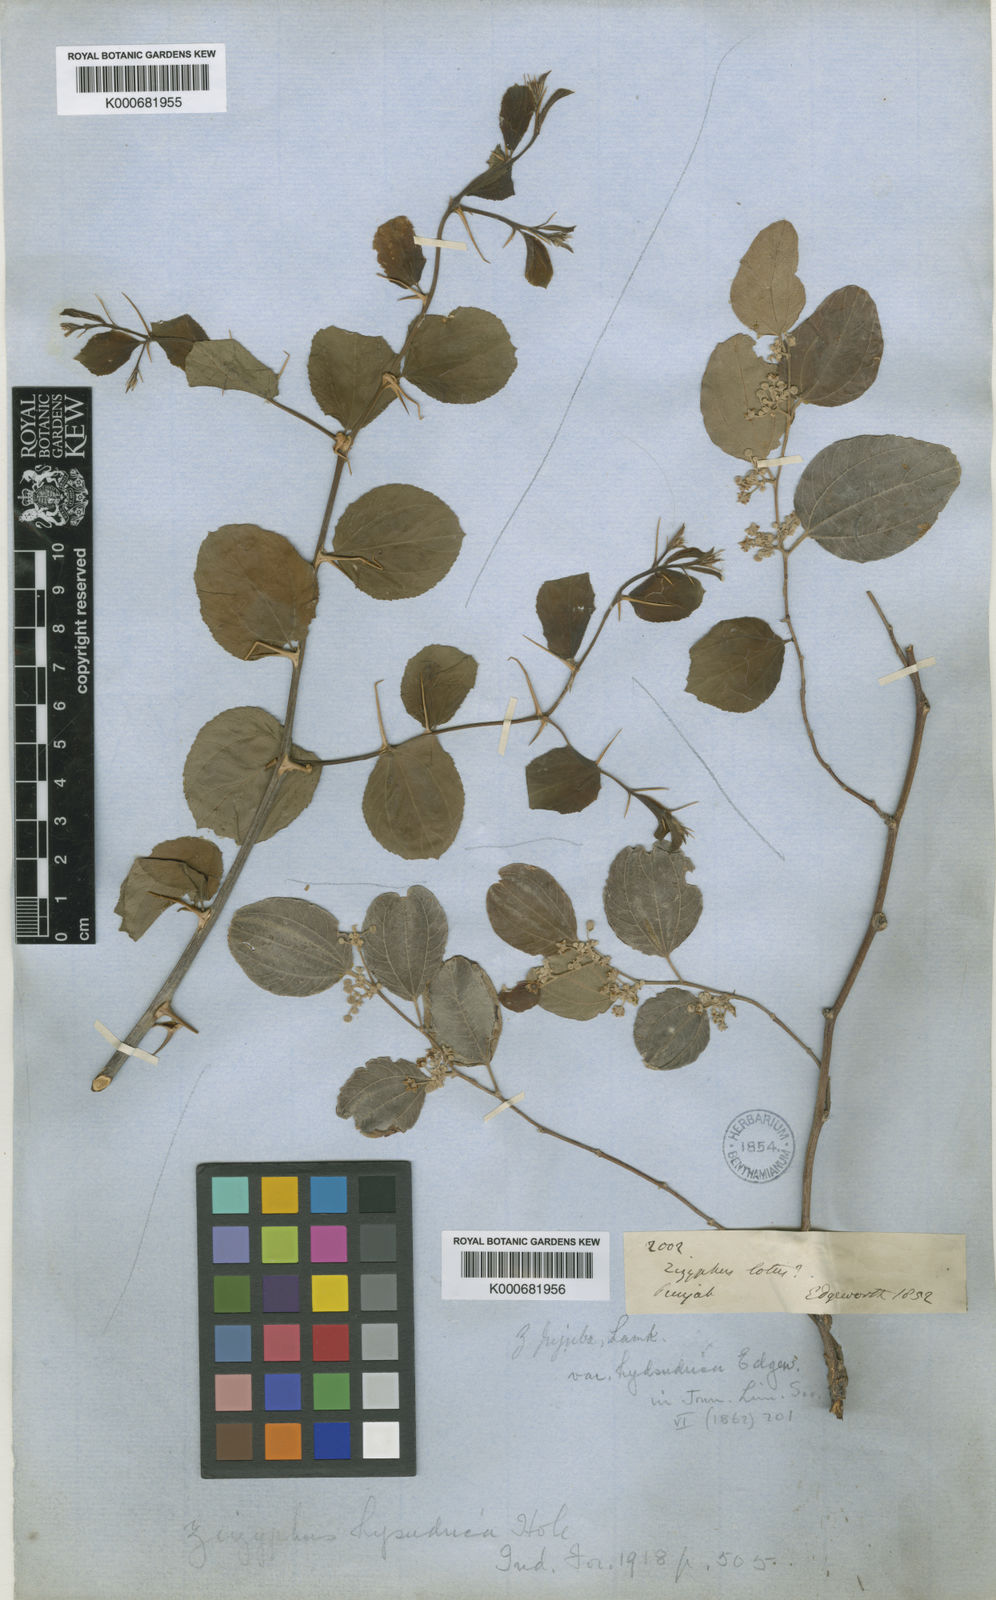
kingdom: Plantae
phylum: Tracheophyta
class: Magnoliopsida
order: Rosales
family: Rhamnaceae
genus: Ziziphus
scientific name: Ziziphus
